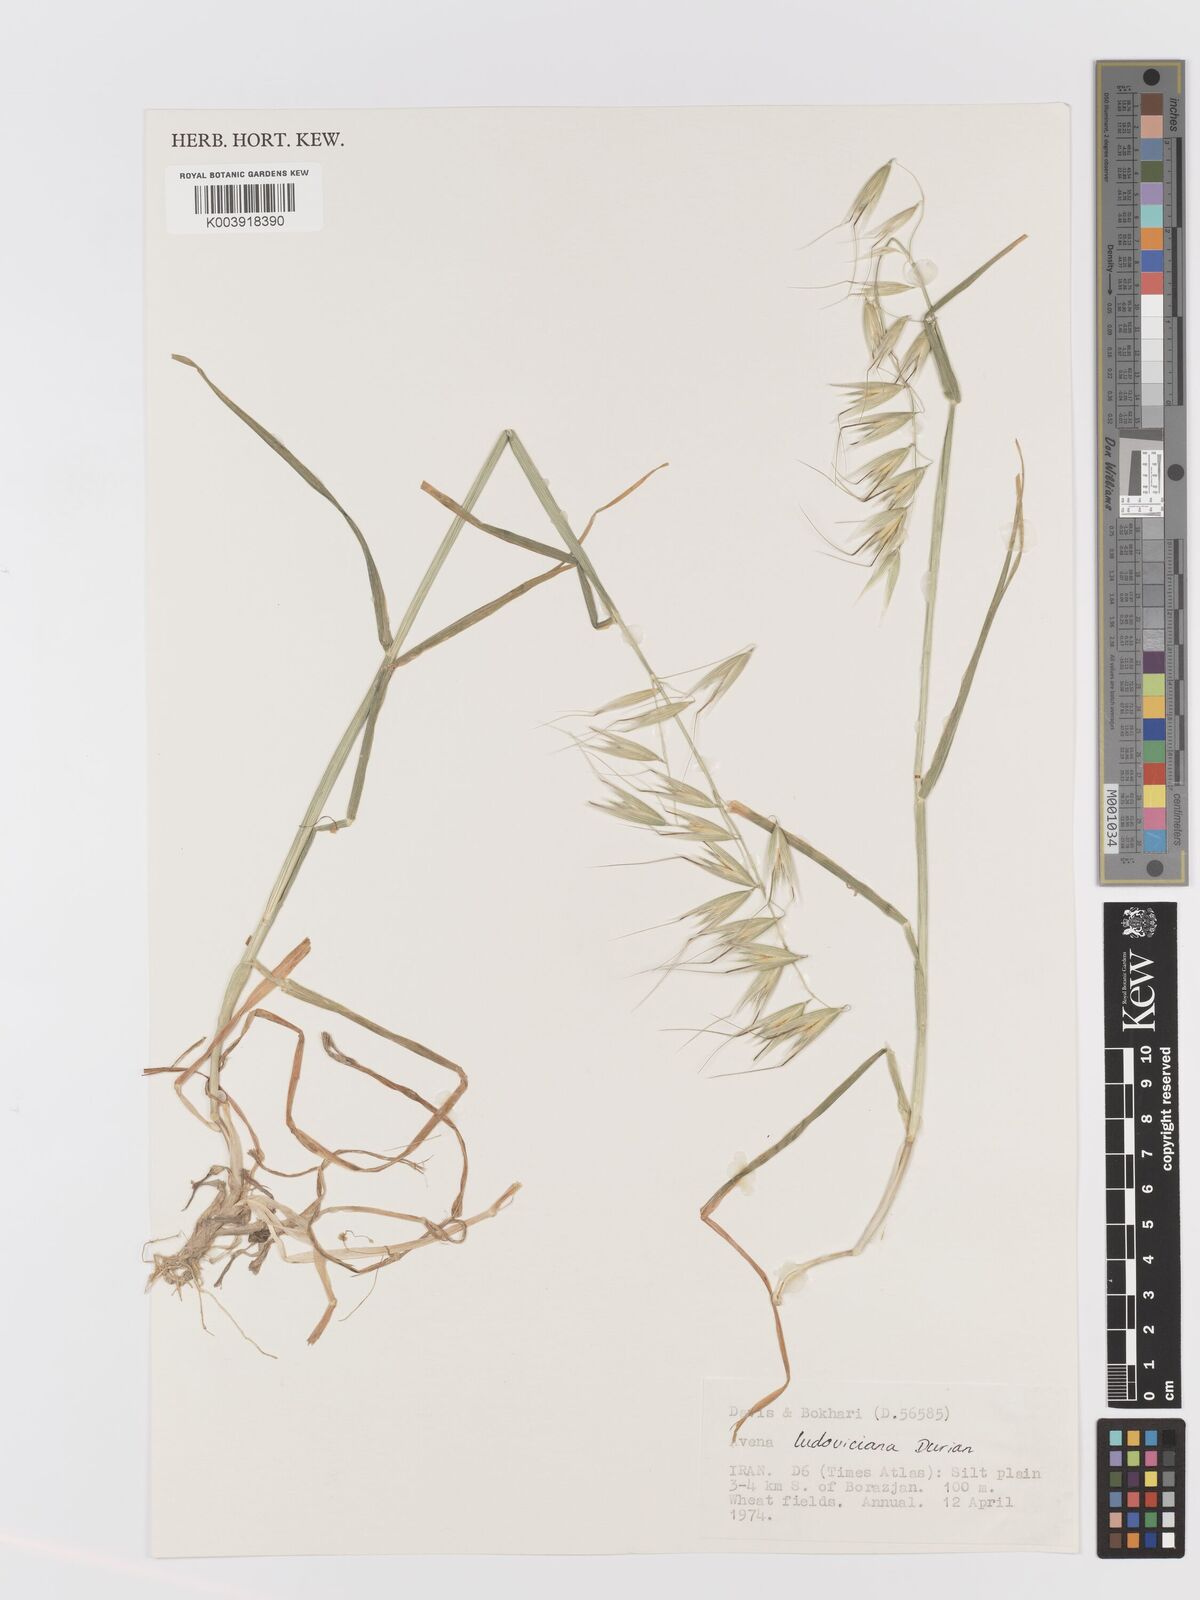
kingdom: Plantae
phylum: Tracheophyta
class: Liliopsida
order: Poales
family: Poaceae
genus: Avena
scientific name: Avena sterilis
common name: Animated oat
